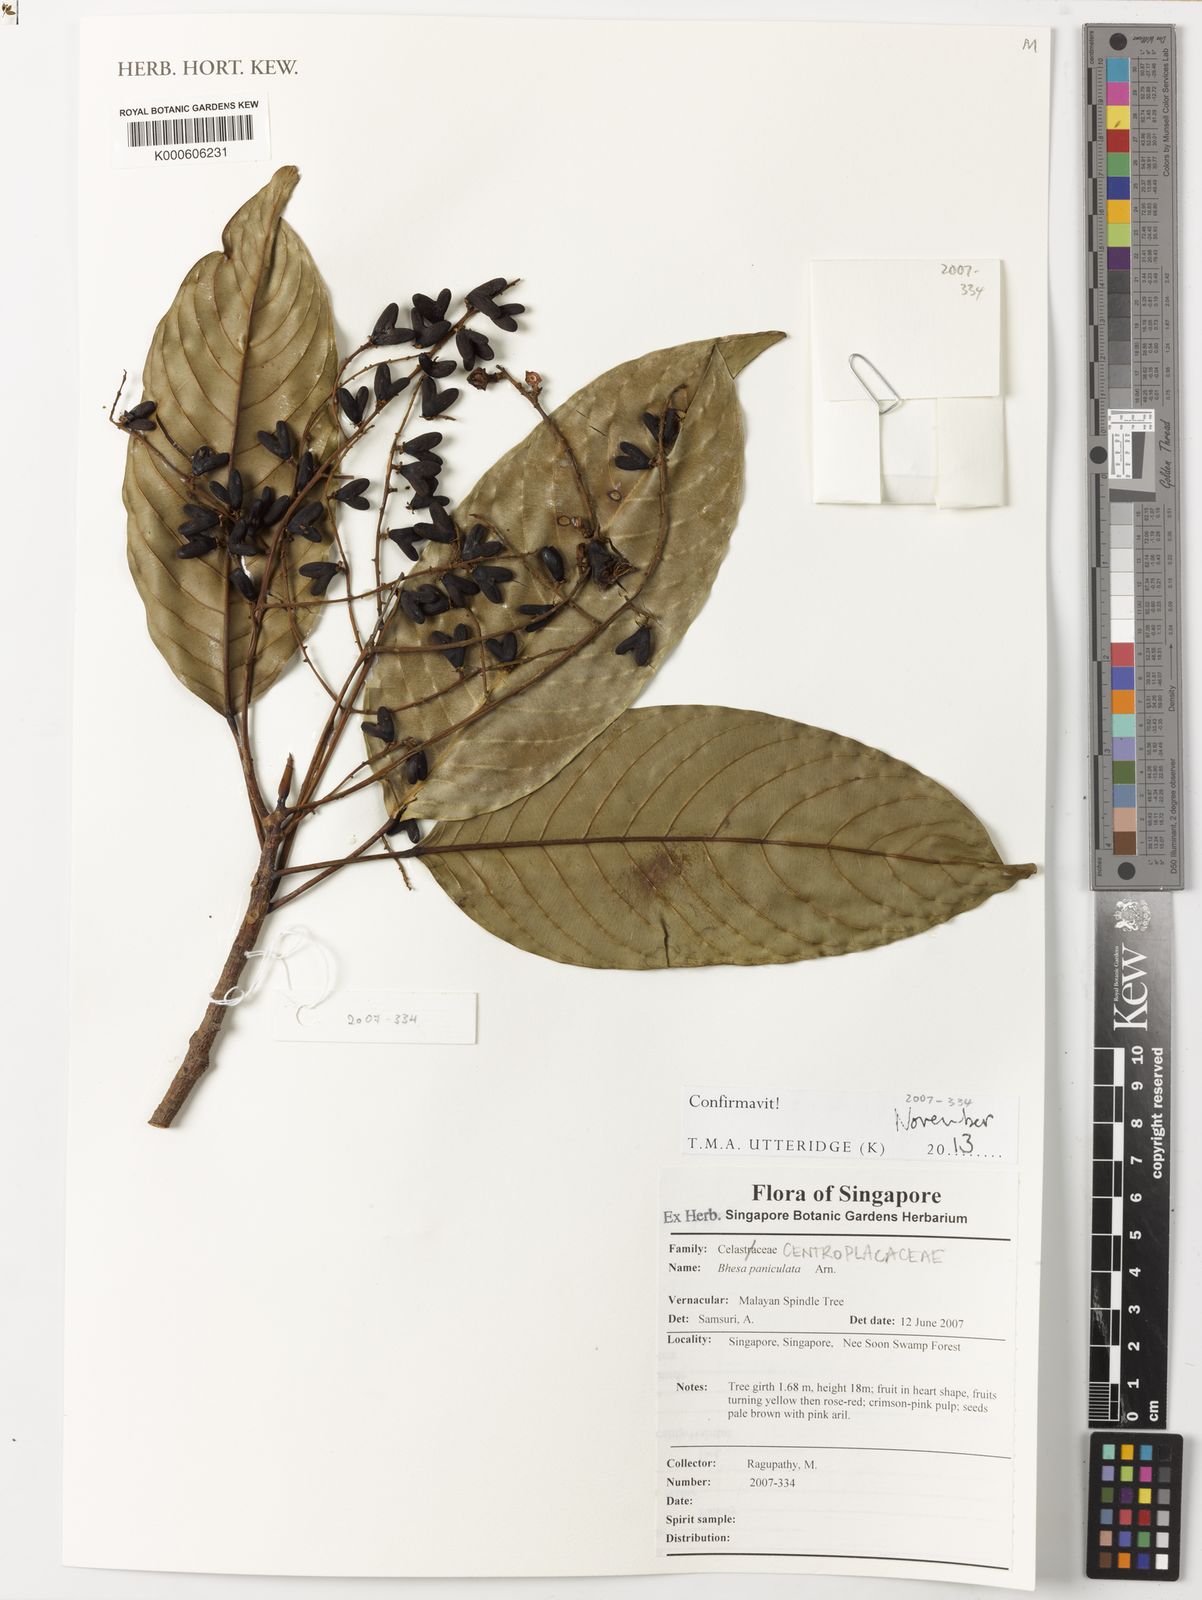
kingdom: Plantae
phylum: Tracheophyta
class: Magnoliopsida
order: Malpighiales
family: Centroplacaceae
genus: Bhesa
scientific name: Bhesa paniculata
